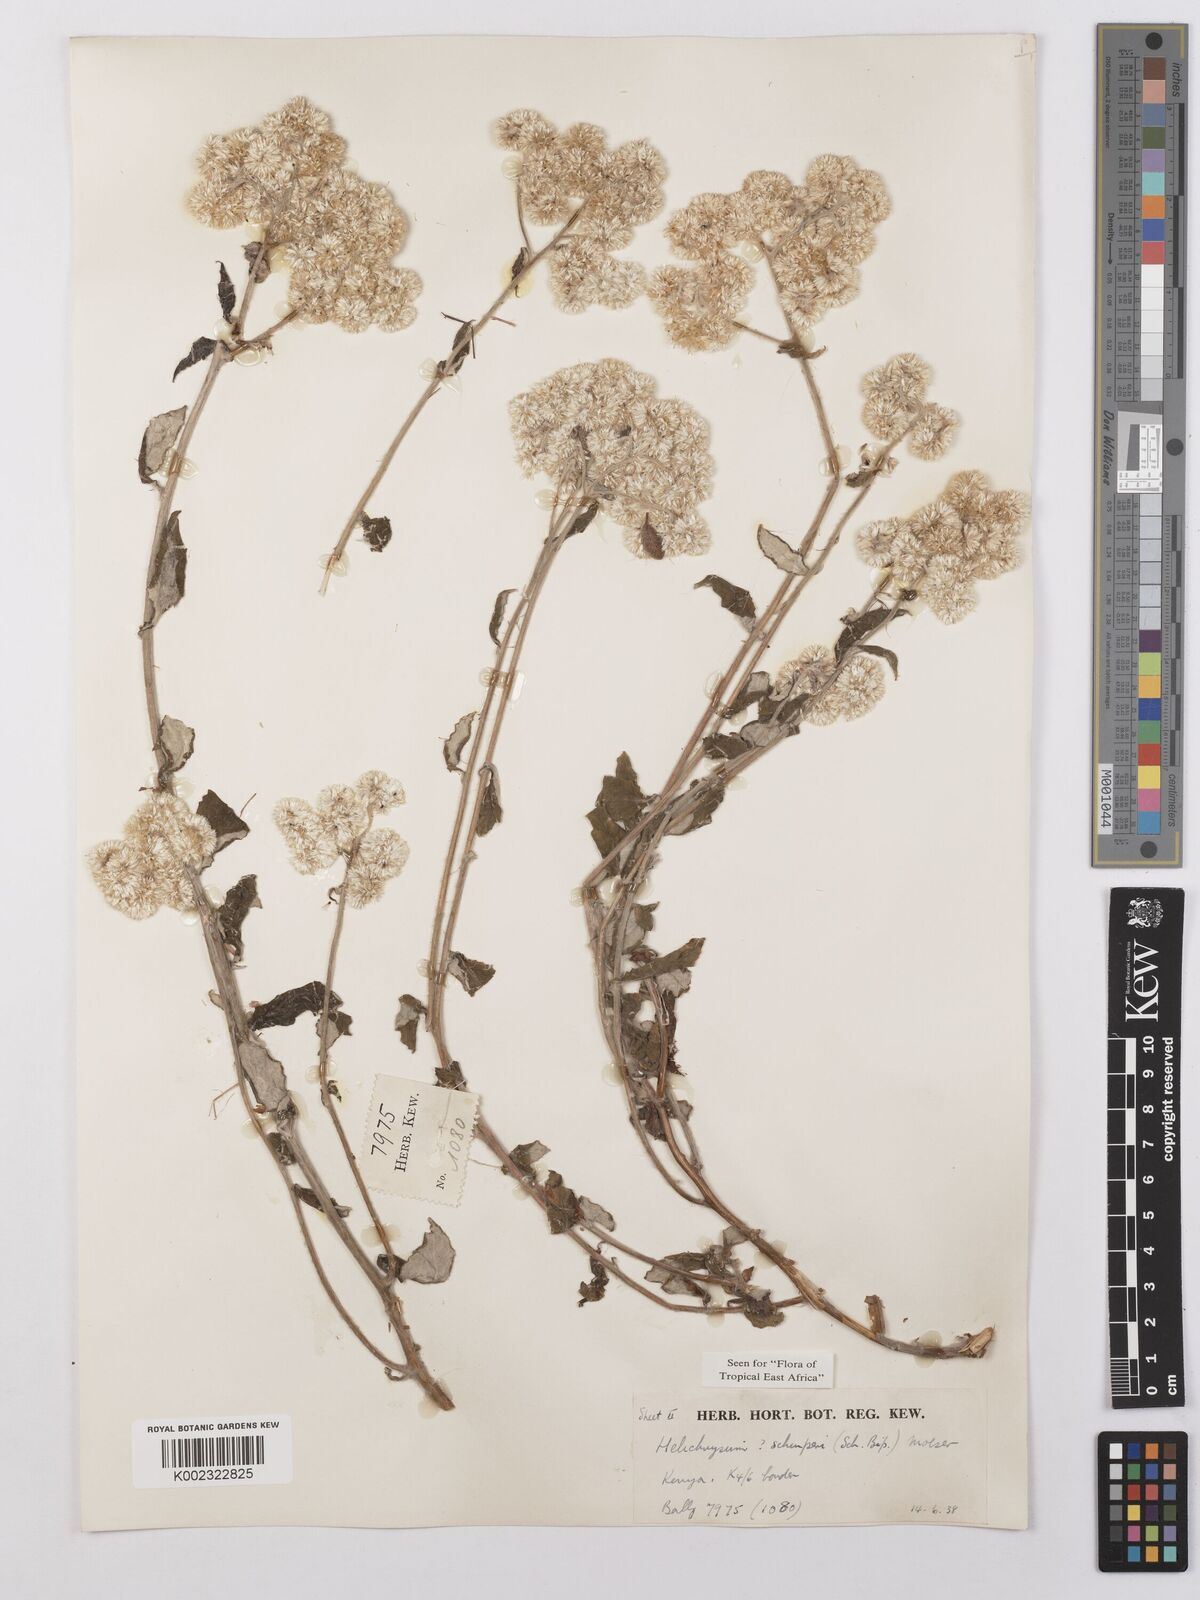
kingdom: Plantae
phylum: Tracheophyta
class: Magnoliopsida
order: Asterales
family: Asteraceae
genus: Helichrysum
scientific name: Helichrysum schimperi
